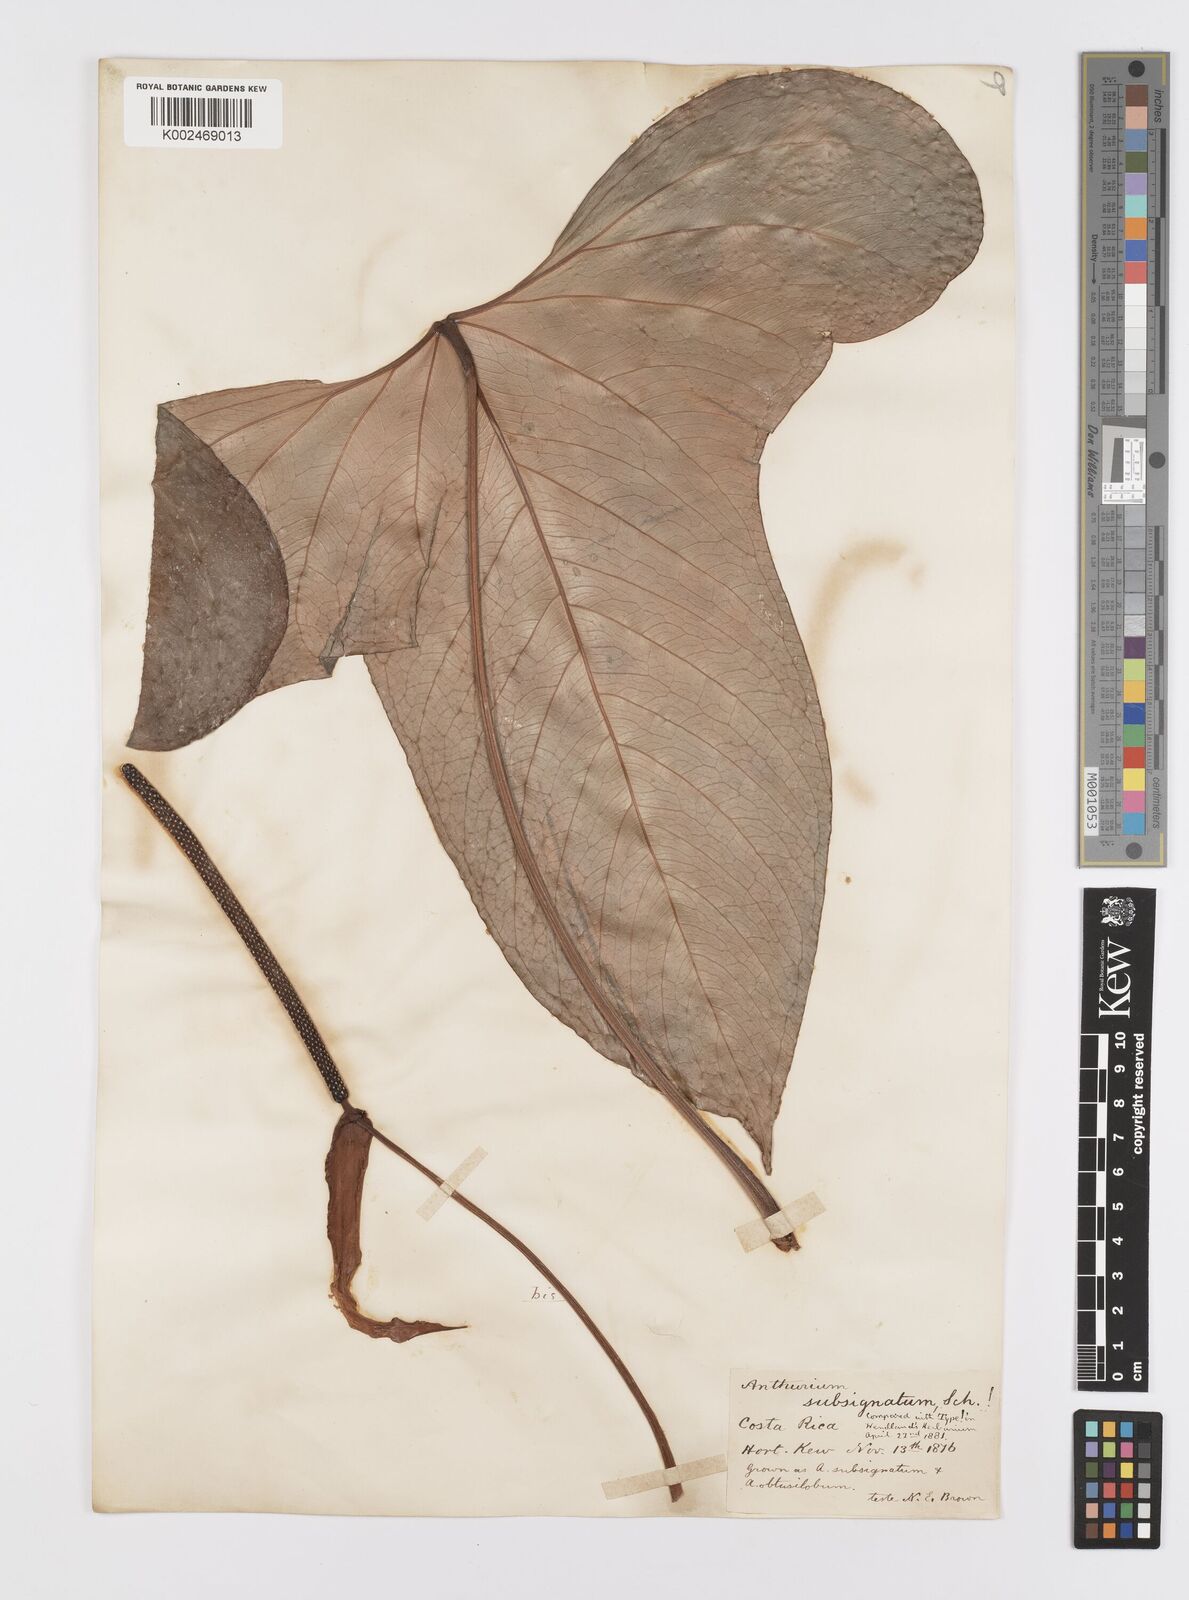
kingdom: Plantae
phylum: Tracheophyta
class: Liliopsida
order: Alismatales
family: Araceae
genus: Anthurium
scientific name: Anthurium subsignatum
